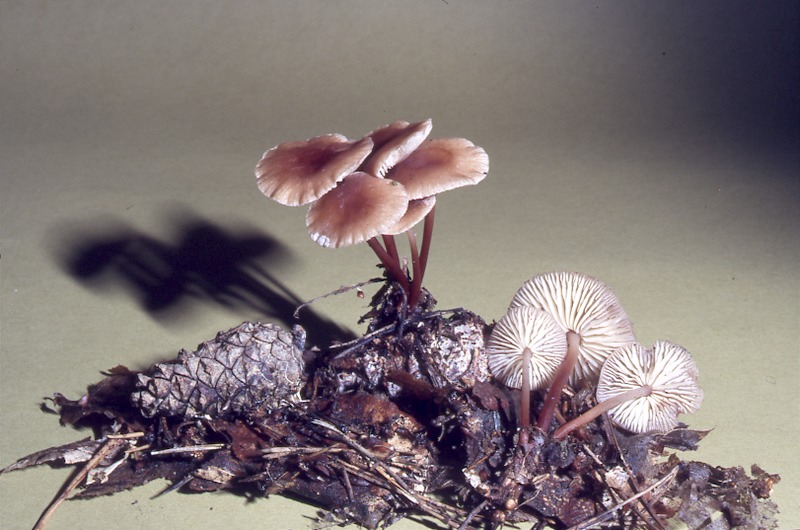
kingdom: Fungi
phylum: Basidiomycota
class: Agaricomycetes
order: Agaricales
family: Physalacriaceae
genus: Strobilurus
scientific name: Strobilurus stephanocystis
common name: Russian conecap
